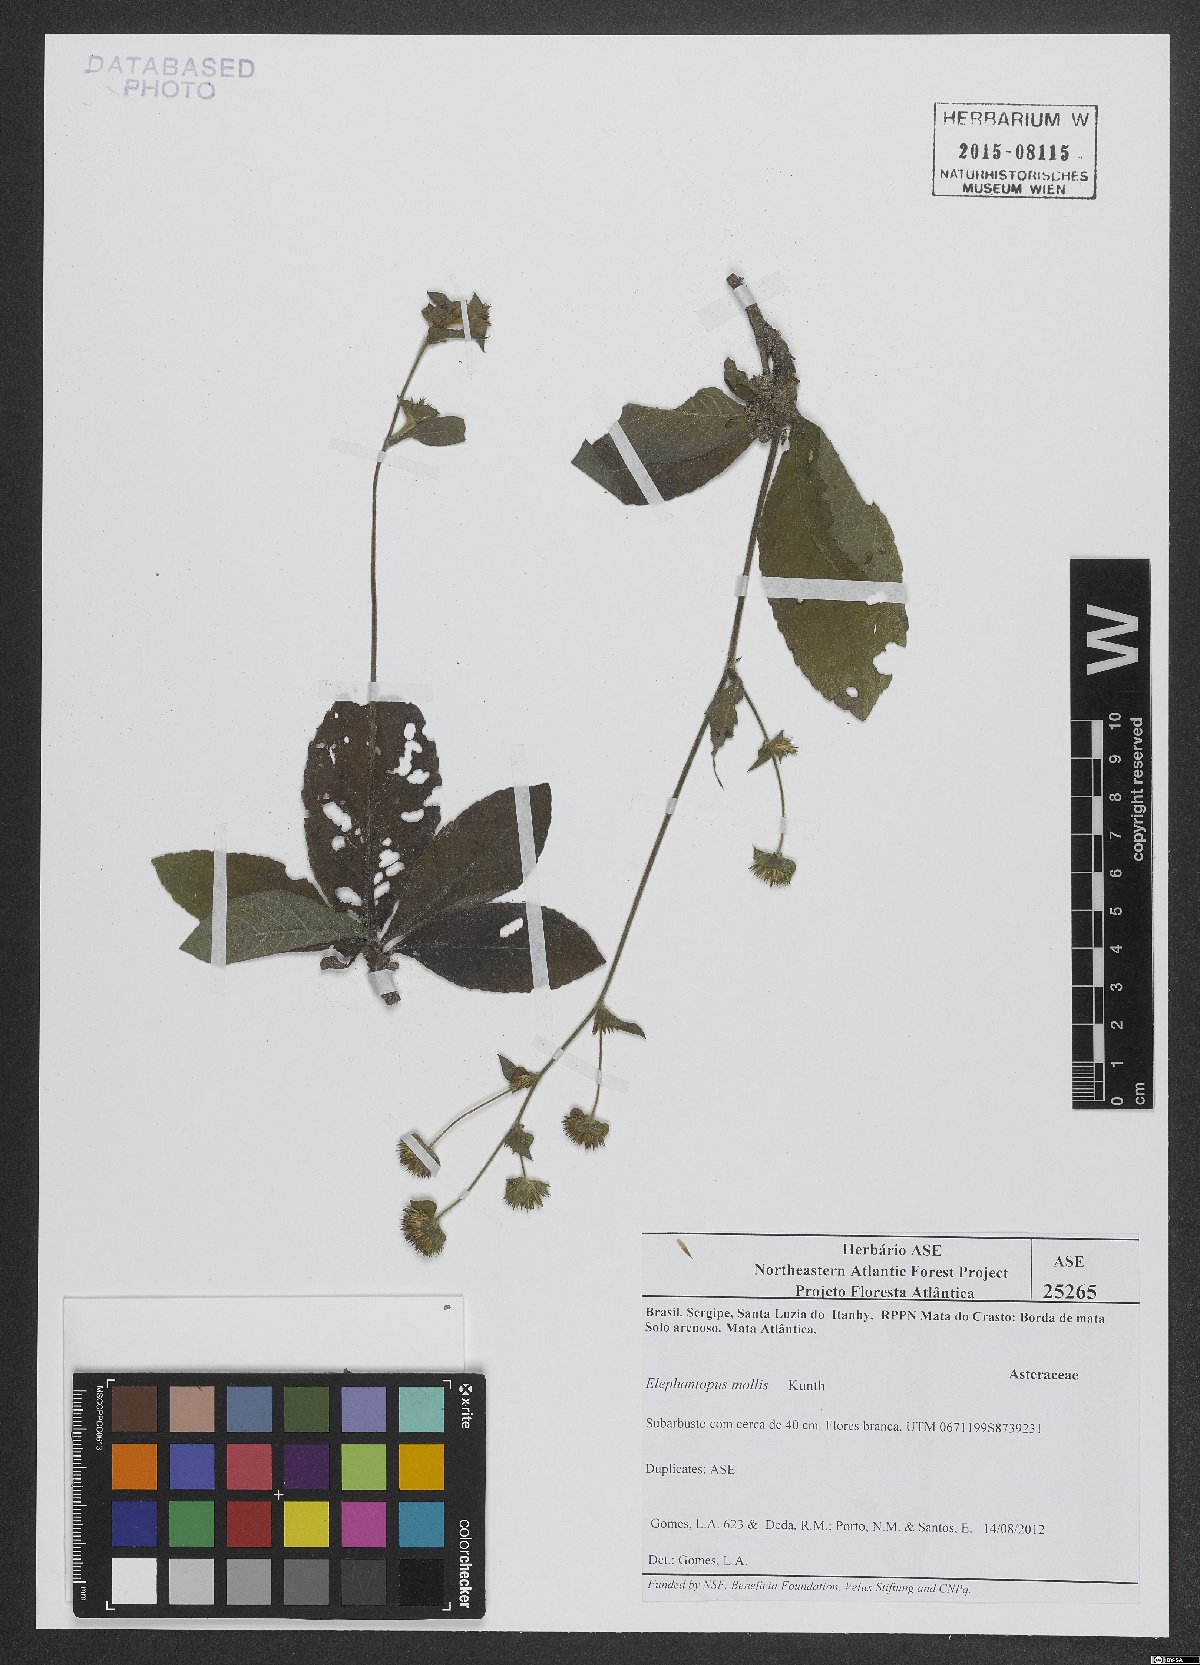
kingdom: Plantae
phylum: Tracheophyta
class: Magnoliopsida
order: Asterales
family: Asteraceae
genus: Elephantopus
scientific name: Elephantopus mollis
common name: Soft elephantsfoot
